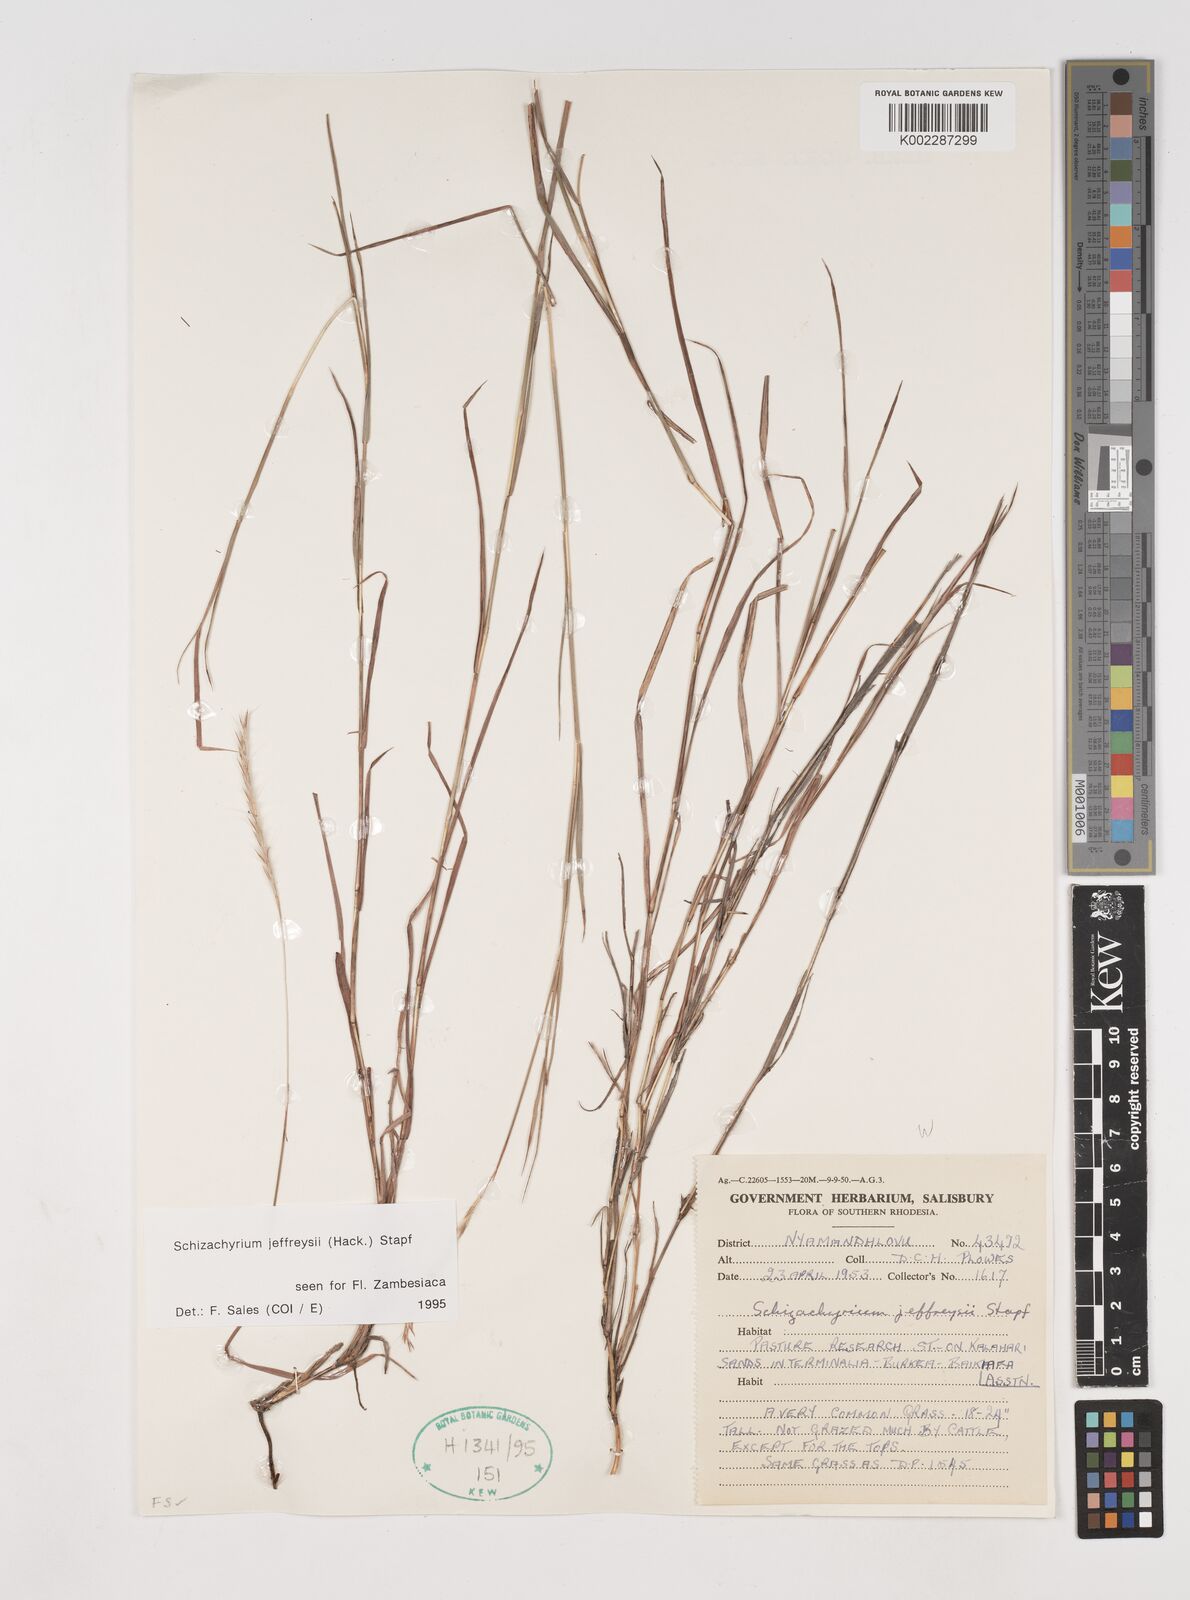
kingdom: Plantae
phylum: Tracheophyta
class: Liliopsida
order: Poales
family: Poaceae
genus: Schizachyrium
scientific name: Schizachyrium jeffreysii
